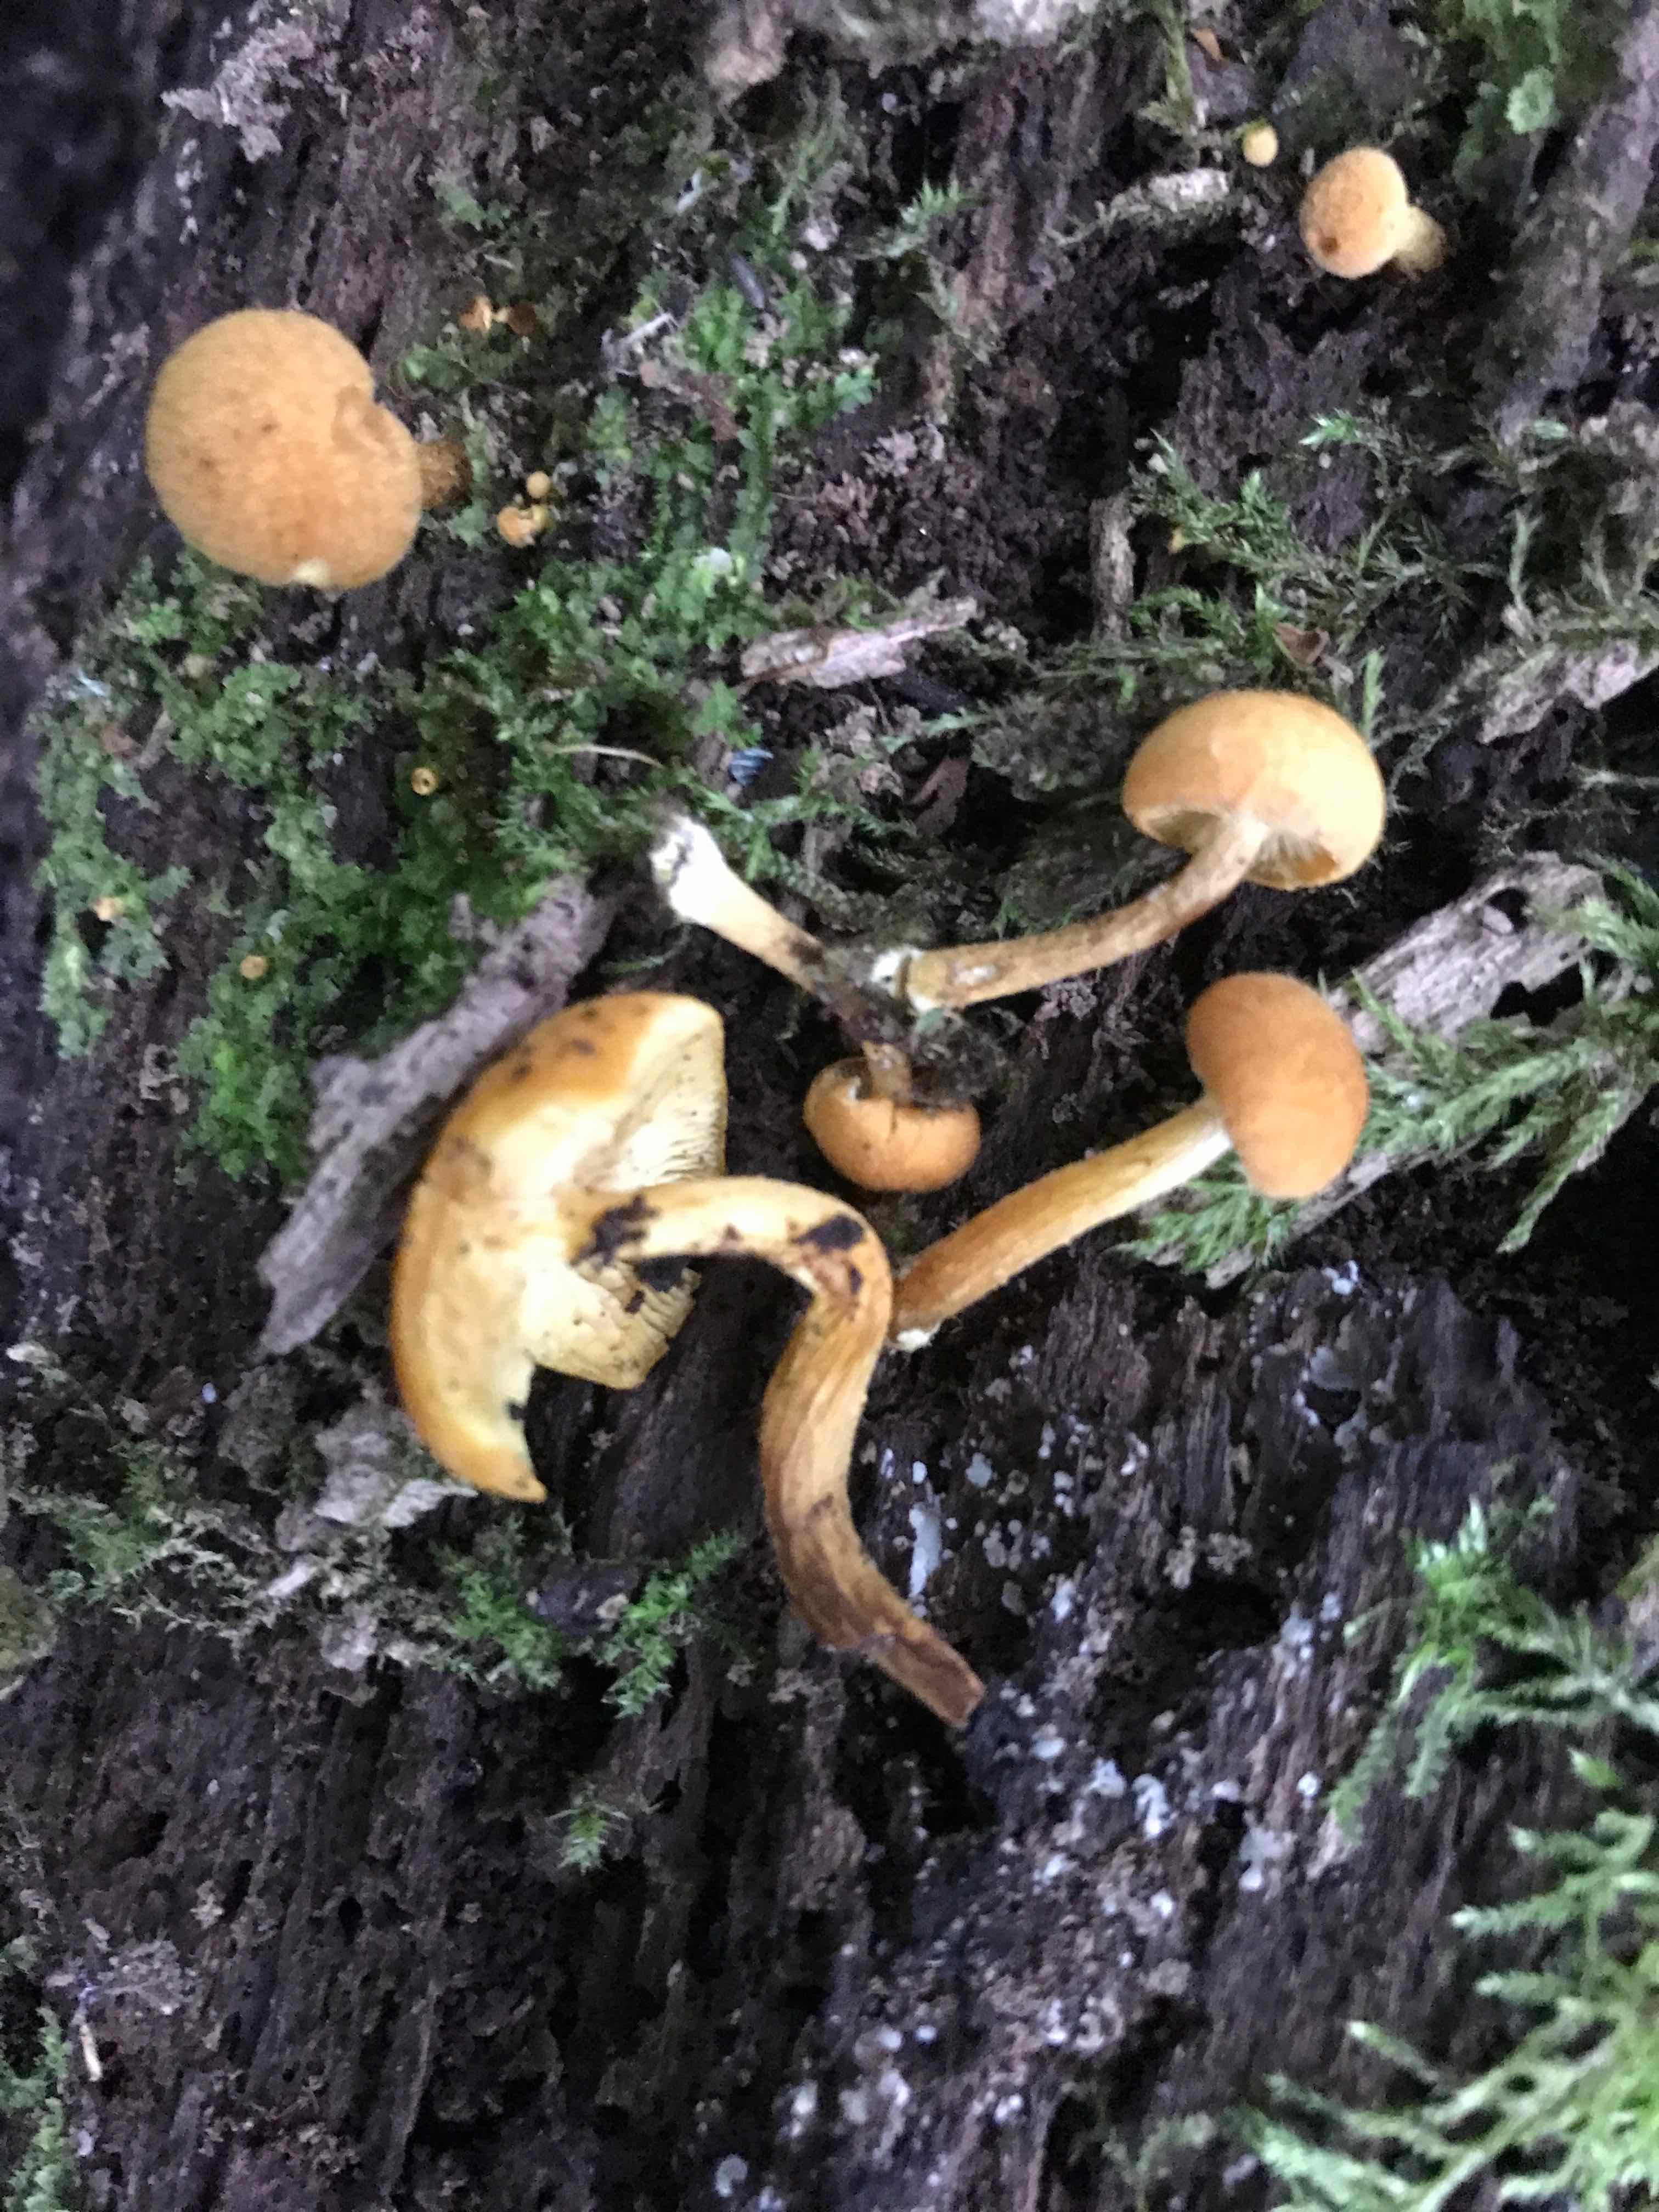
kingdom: Fungi
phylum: Basidiomycota
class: Agaricomycetes
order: Agaricales
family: Hymenogastraceae
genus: Galerina
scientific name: Galerina marginata
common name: randbæltet hjelmhat
